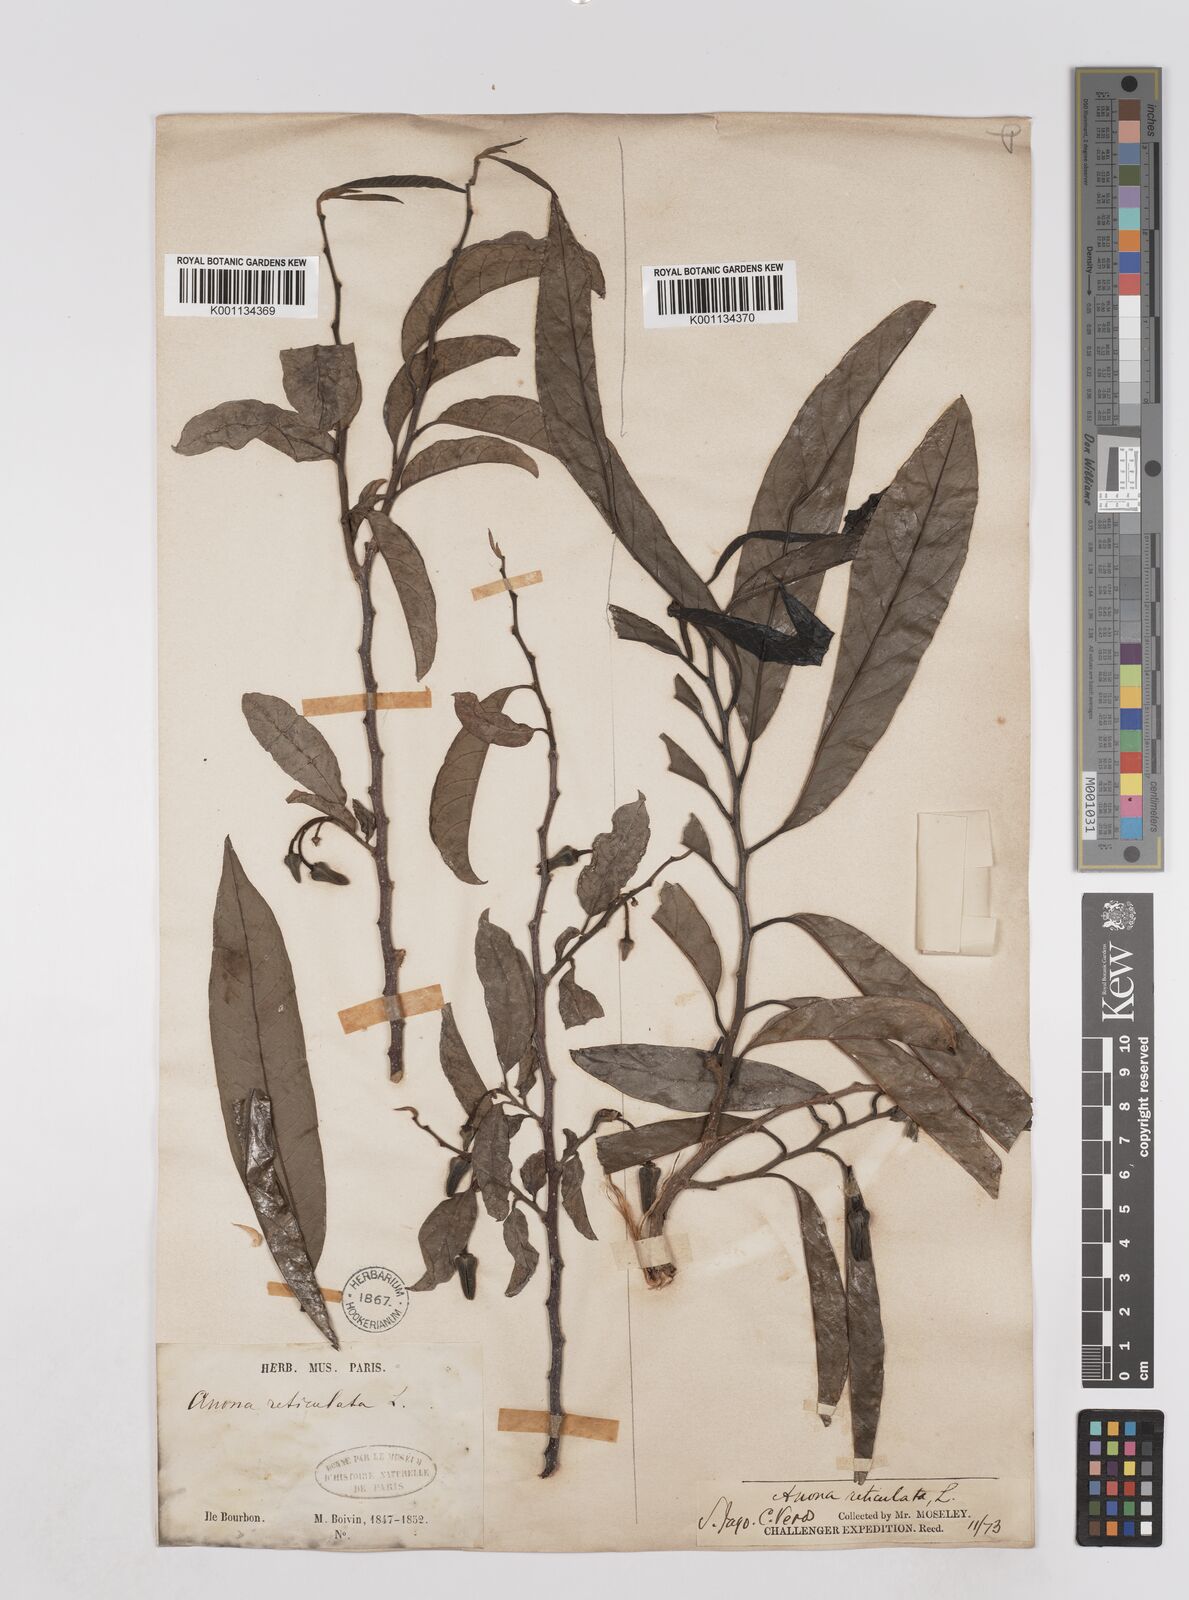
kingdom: Plantae
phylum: Tracheophyta
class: Magnoliopsida
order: Magnoliales
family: Annonaceae
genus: Annona
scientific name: Annona squamosa
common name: Custard-apple
